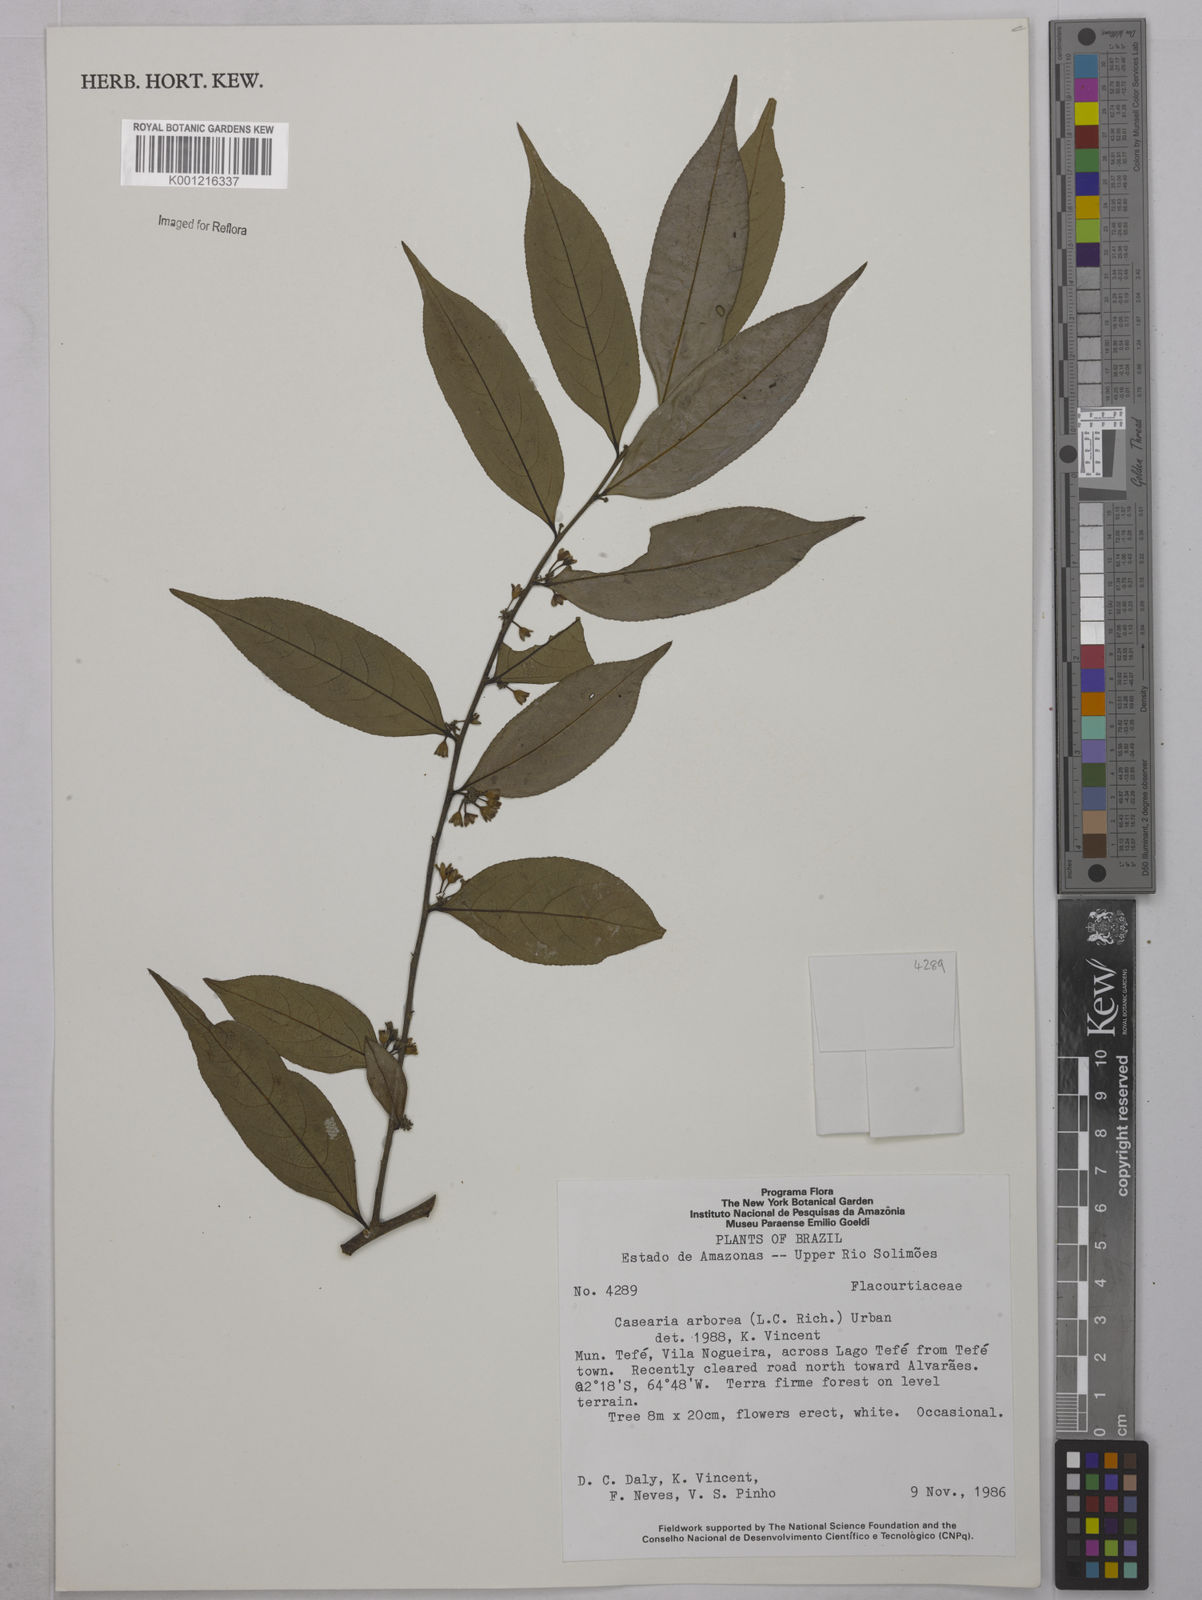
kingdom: Plantae
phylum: Tracheophyta
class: Magnoliopsida
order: Malpighiales
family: Salicaceae
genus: Casearia
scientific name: Casearia arborea
